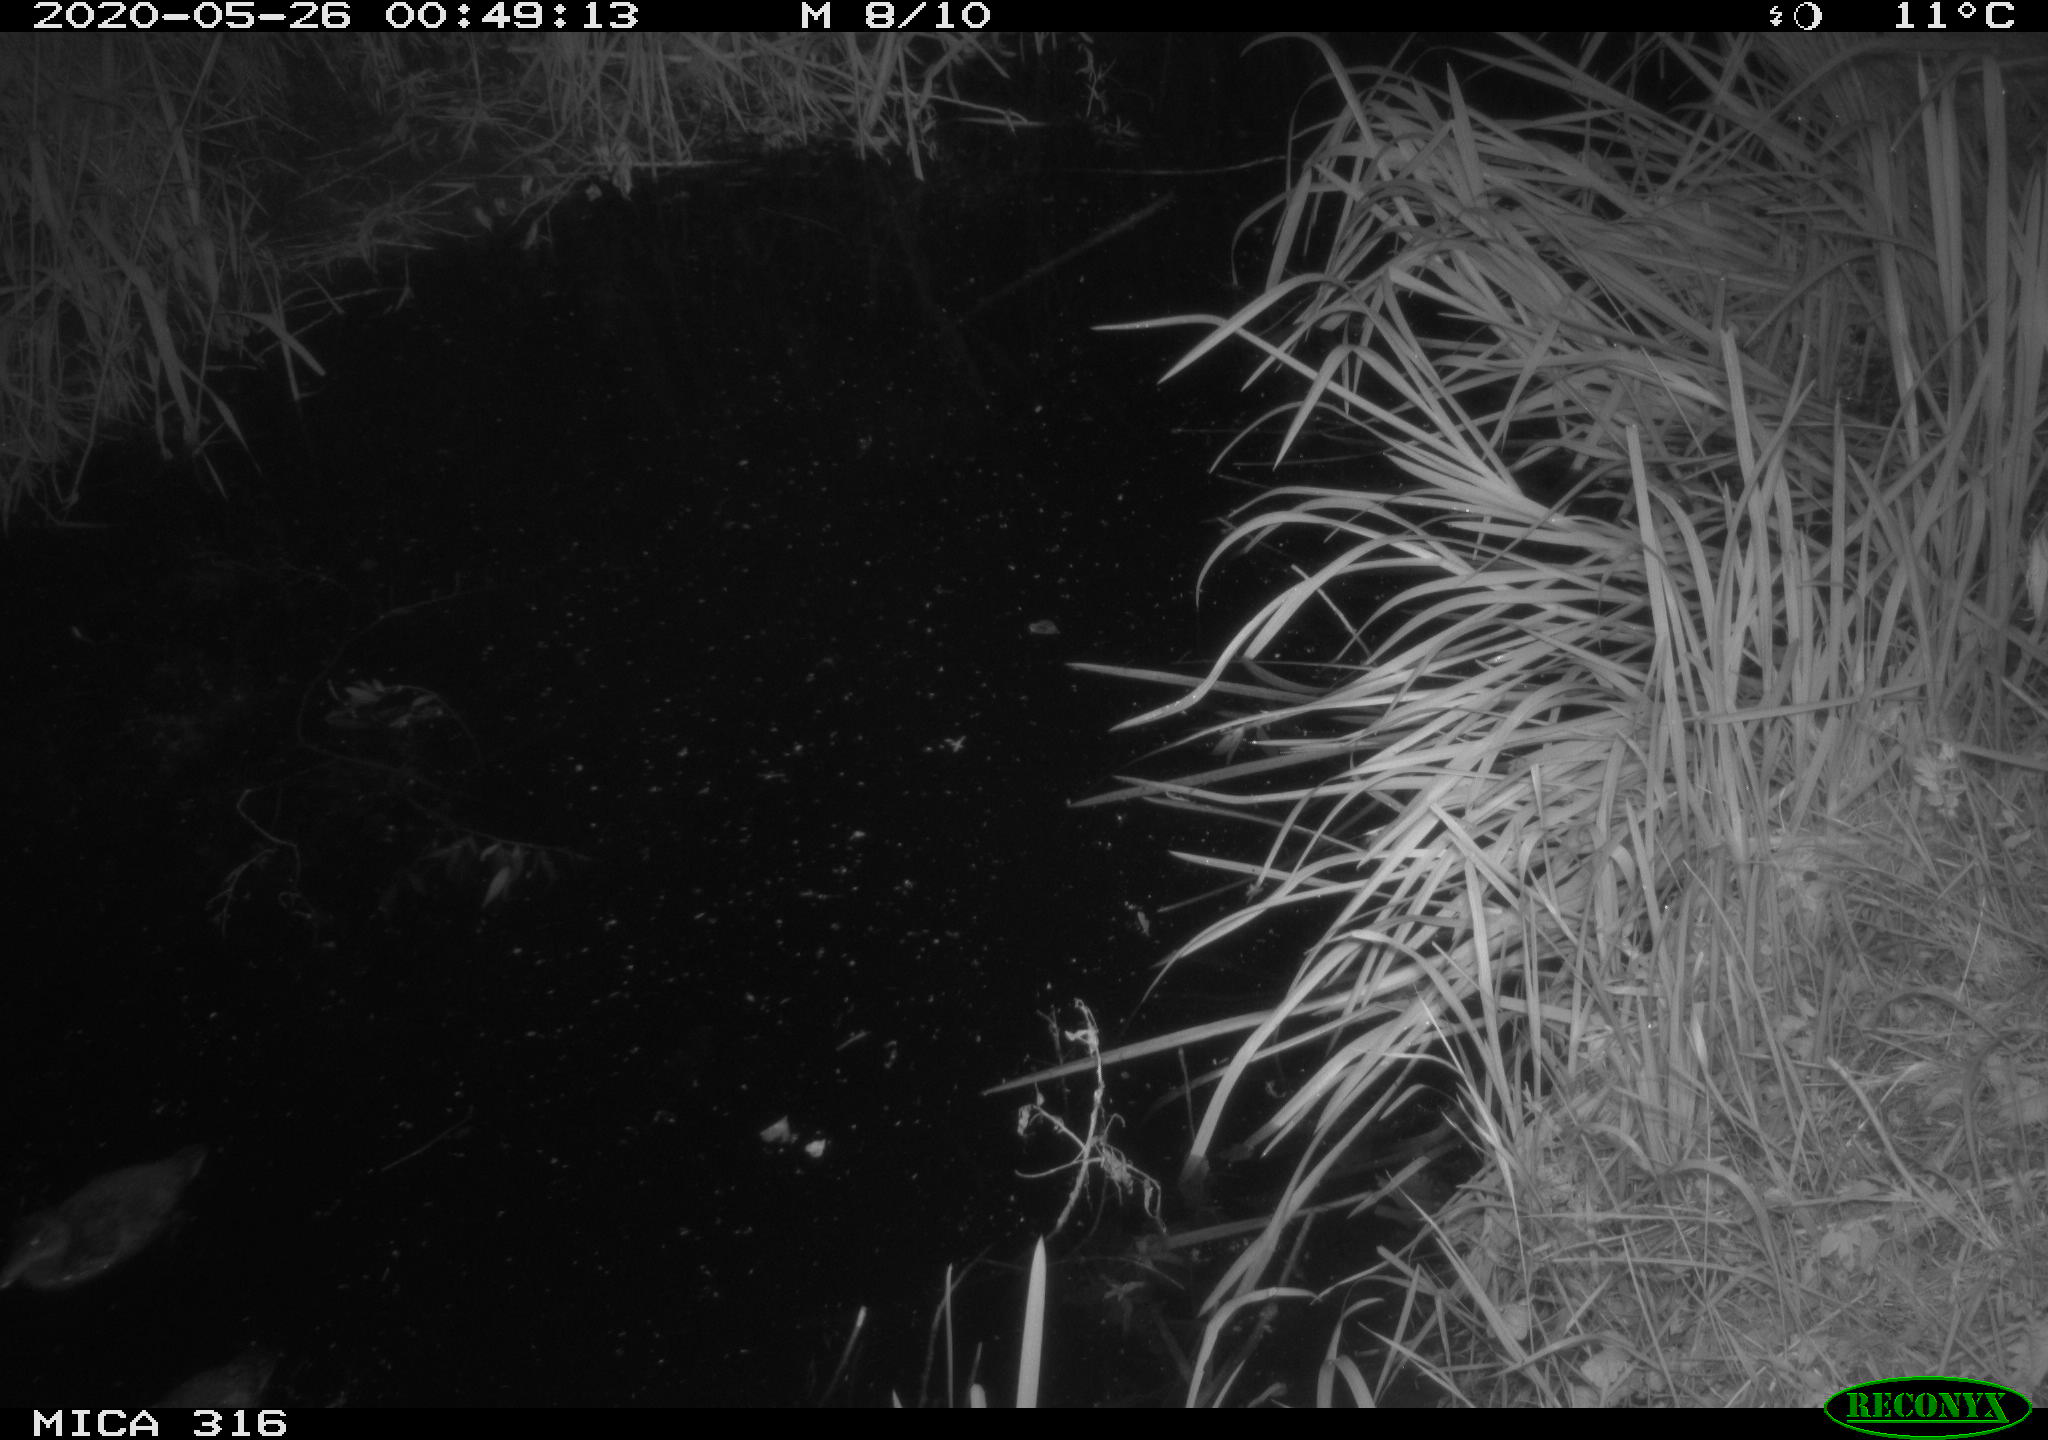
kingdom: Animalia
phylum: Chordata
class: Aves
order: Anseriformes
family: Anatidae
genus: Anas
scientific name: Anas platyrhynchos
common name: Mallard
